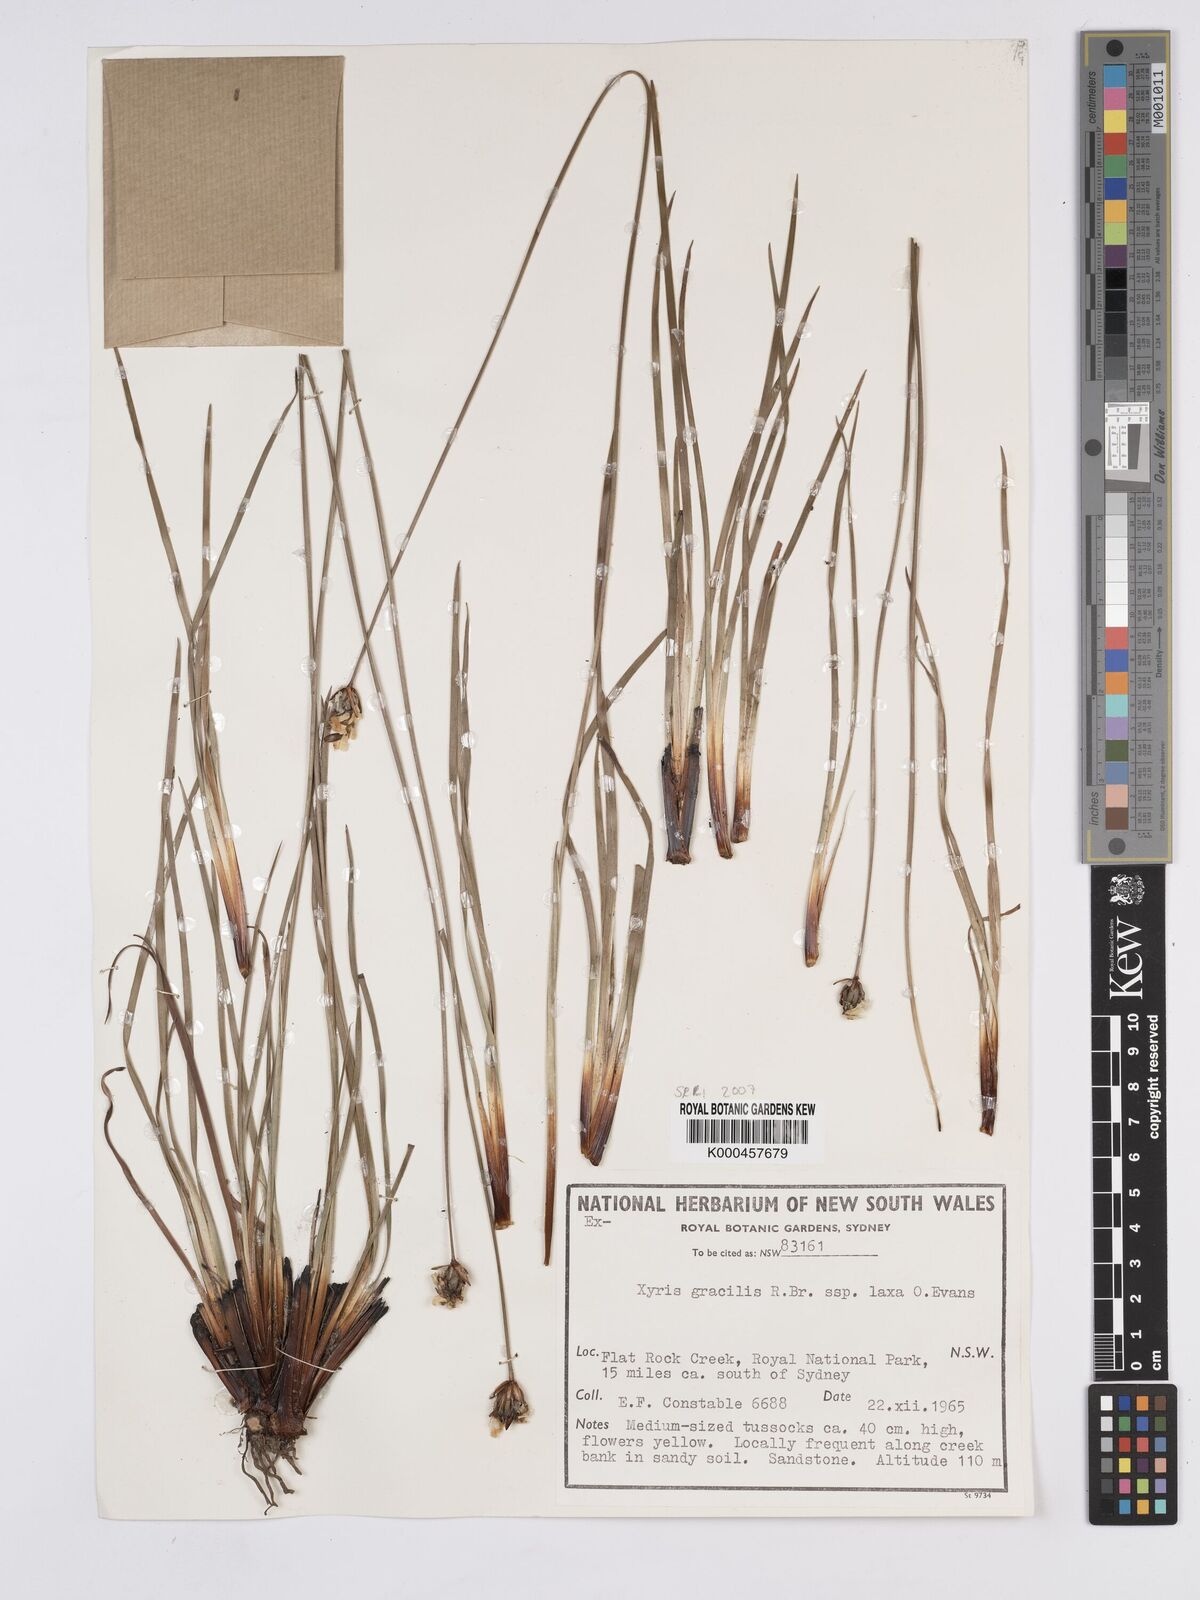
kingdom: Plantae
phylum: Tracheophyta
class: Liliopsida
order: Poales
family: Xyridaceae
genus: Xyris
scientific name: Xyris bracteata
